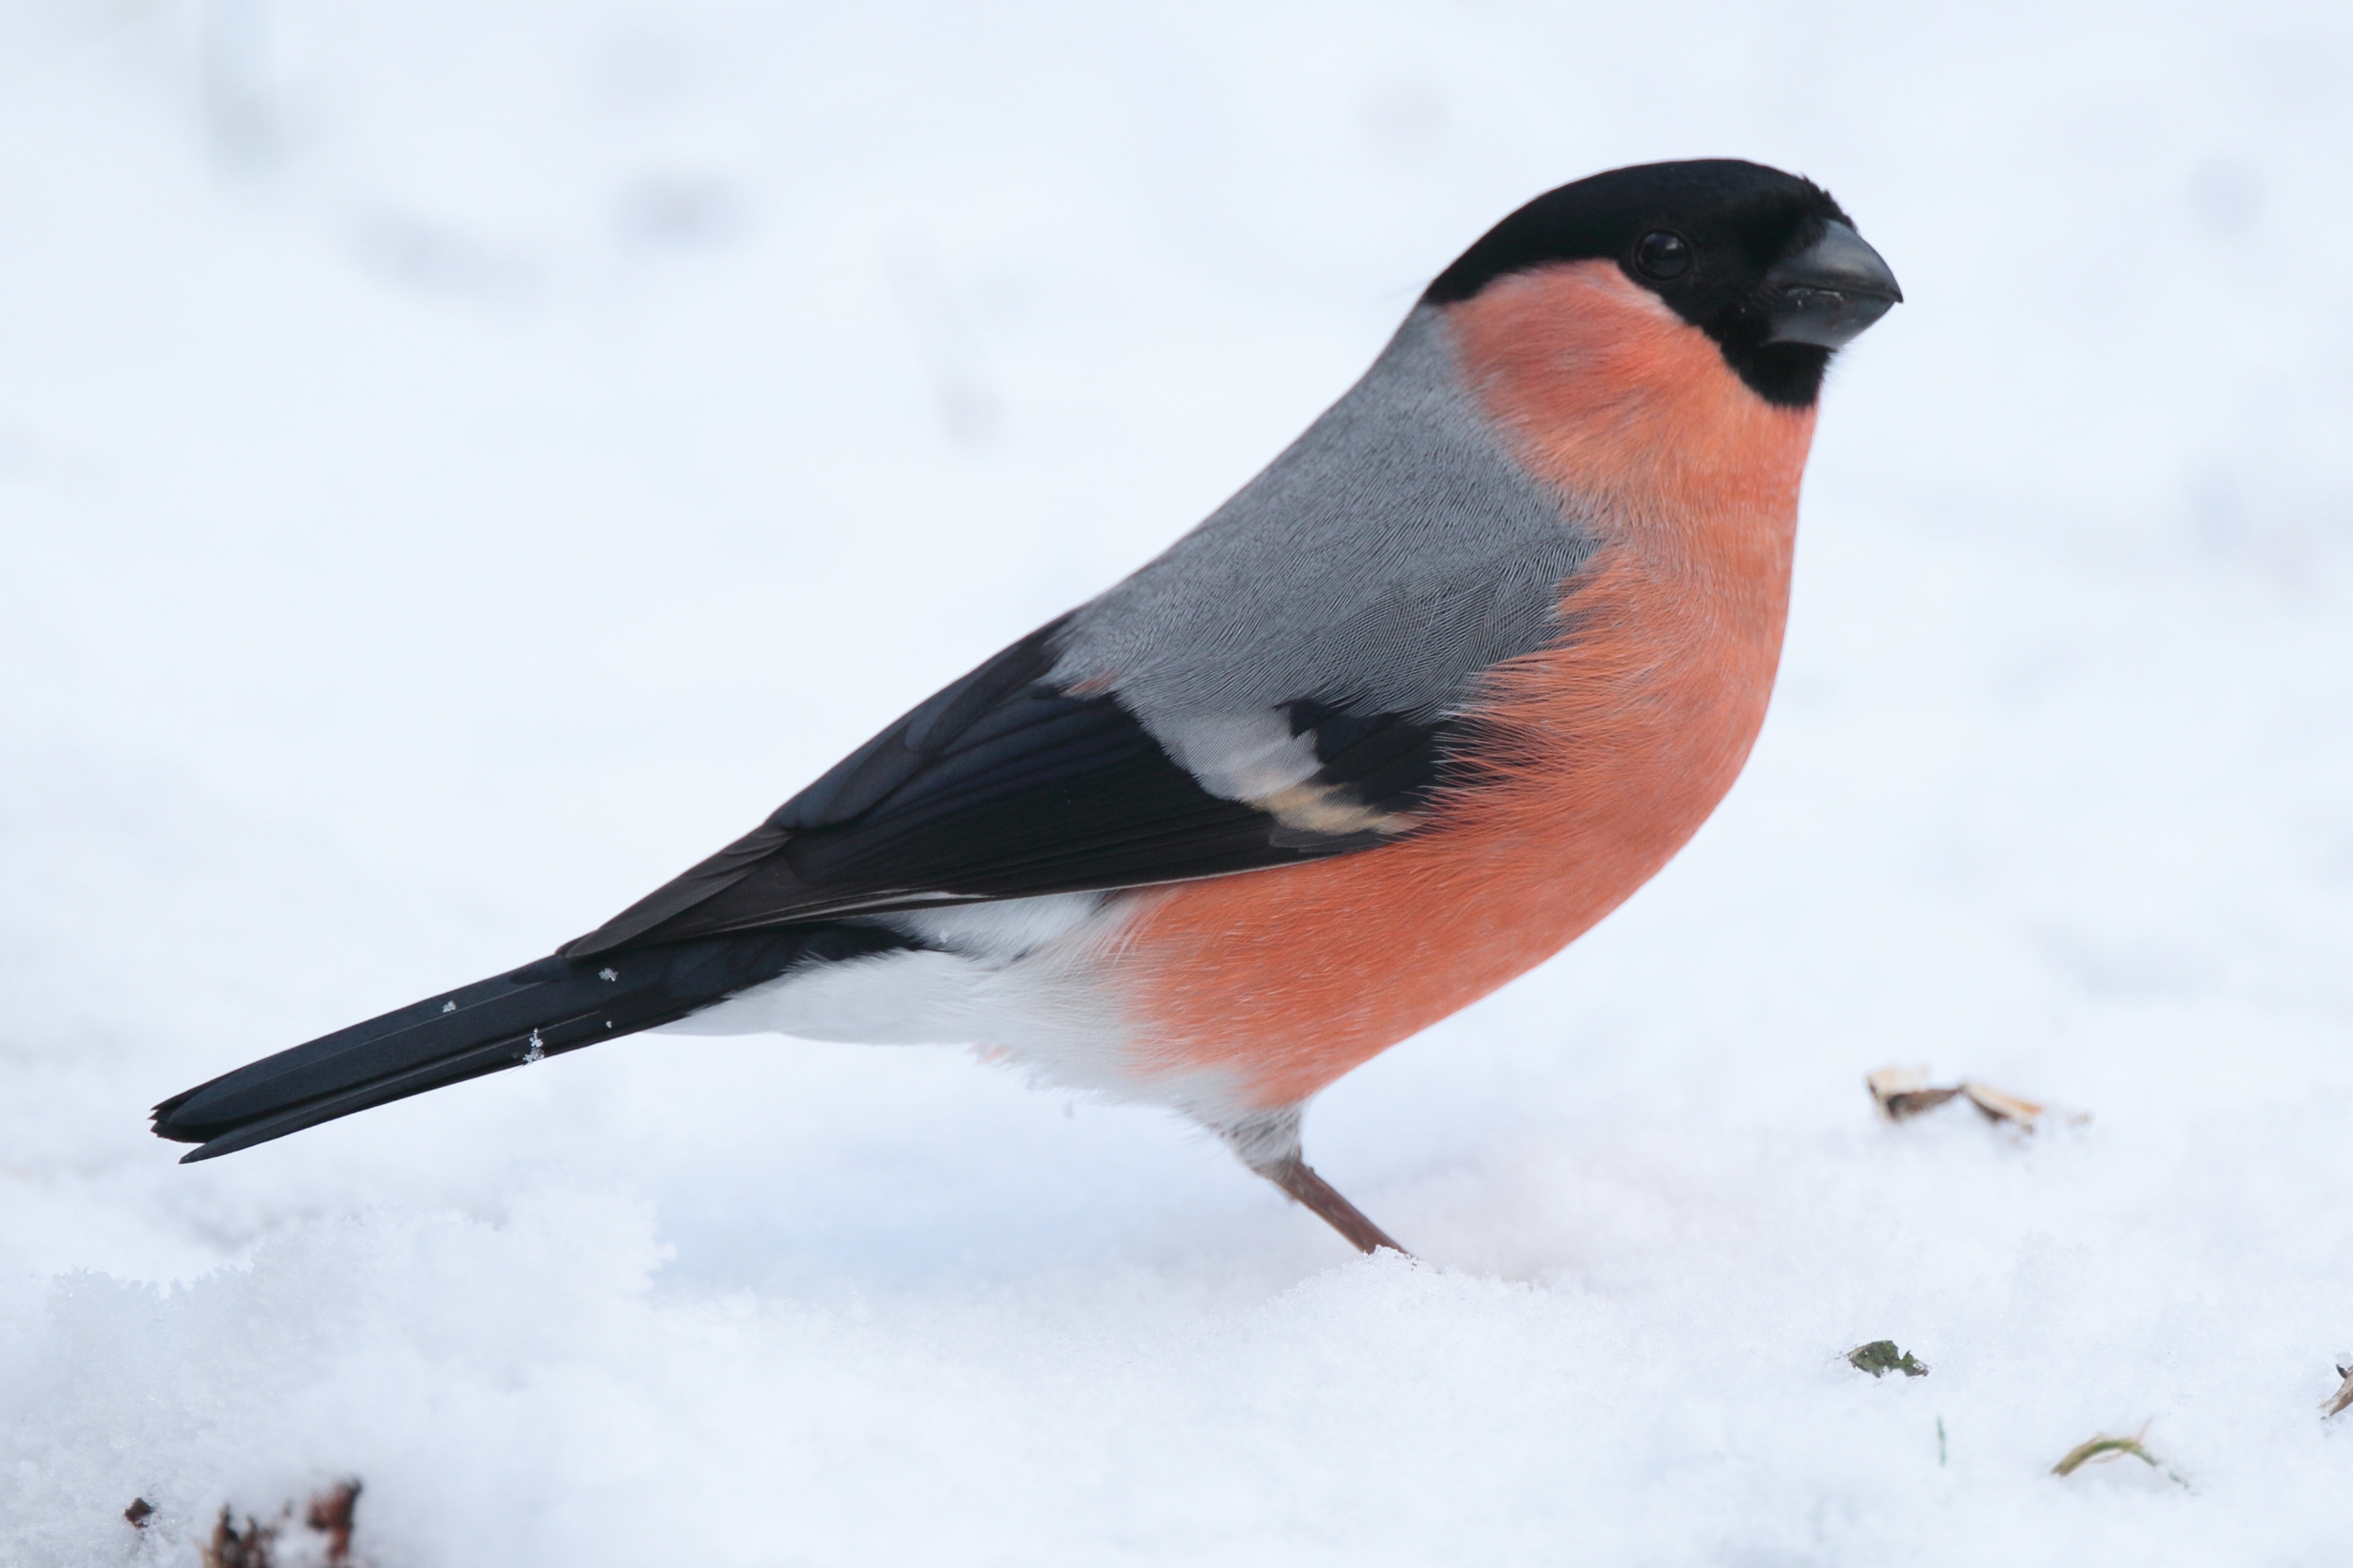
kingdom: Animalia
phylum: Chordata
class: Aves
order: Passeriformes
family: Fringillidae
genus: Pyrrhula
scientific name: Pyrrhula pyrrhula
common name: Dompap
